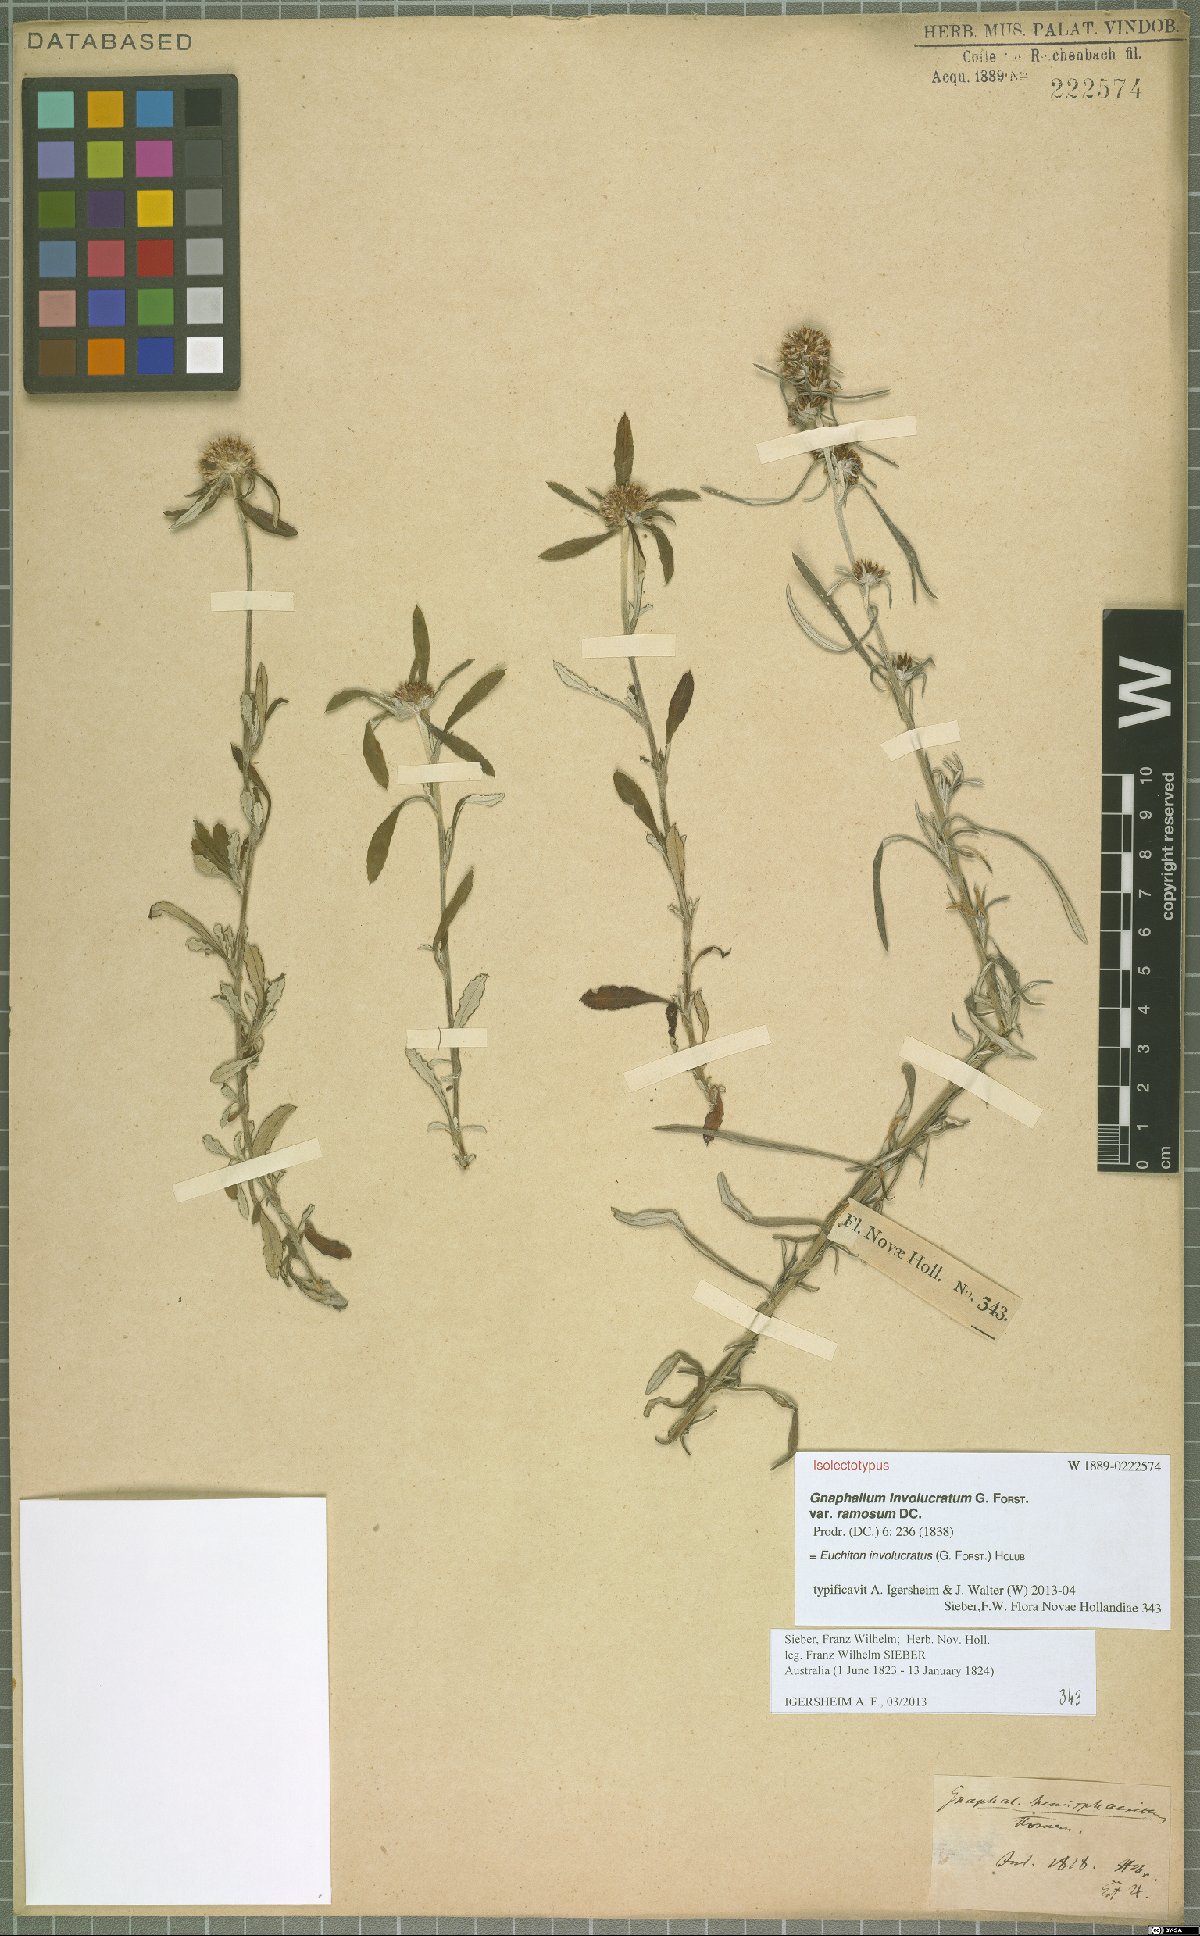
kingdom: Plantae
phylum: Tracheophyta
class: Magnoliopsida
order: Asterales
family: Asteraceae
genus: Euchiton
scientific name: Euchiton involucratus
